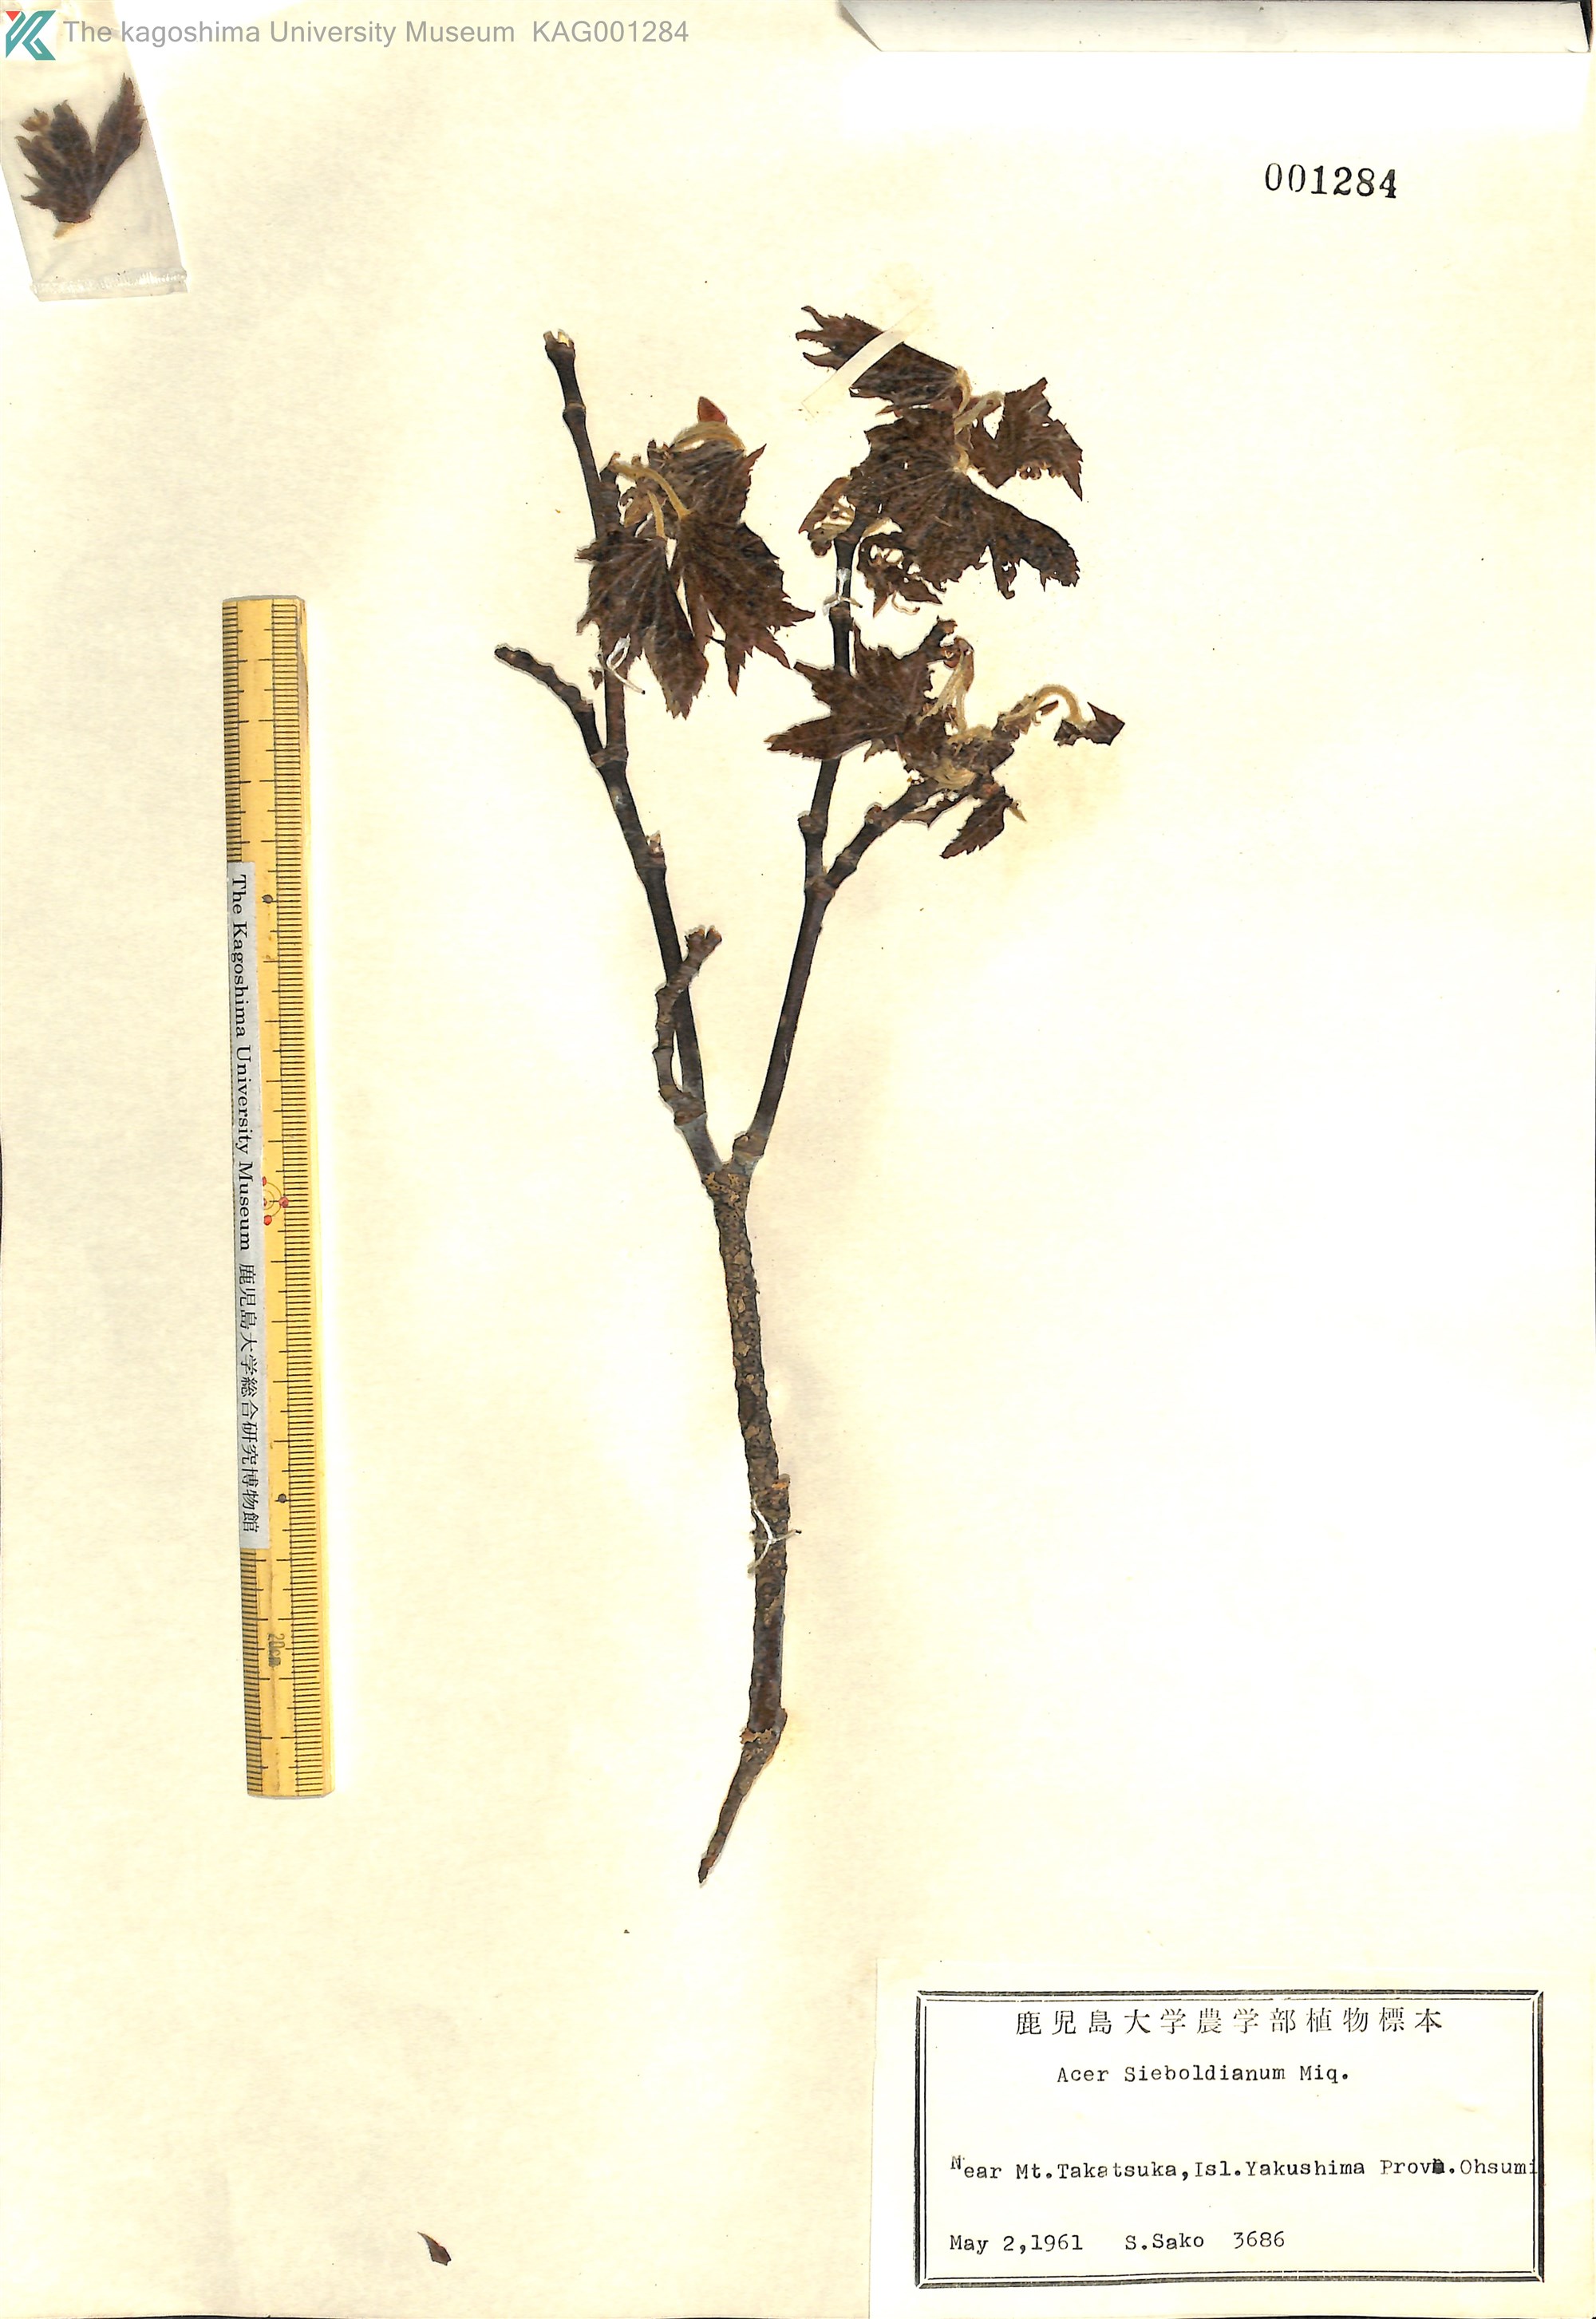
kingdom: Plantae
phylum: Tracheophyta
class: Magnoliopsida
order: Sapindales
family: Sapindaceae
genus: Acer
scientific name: Acer sieboldianum
